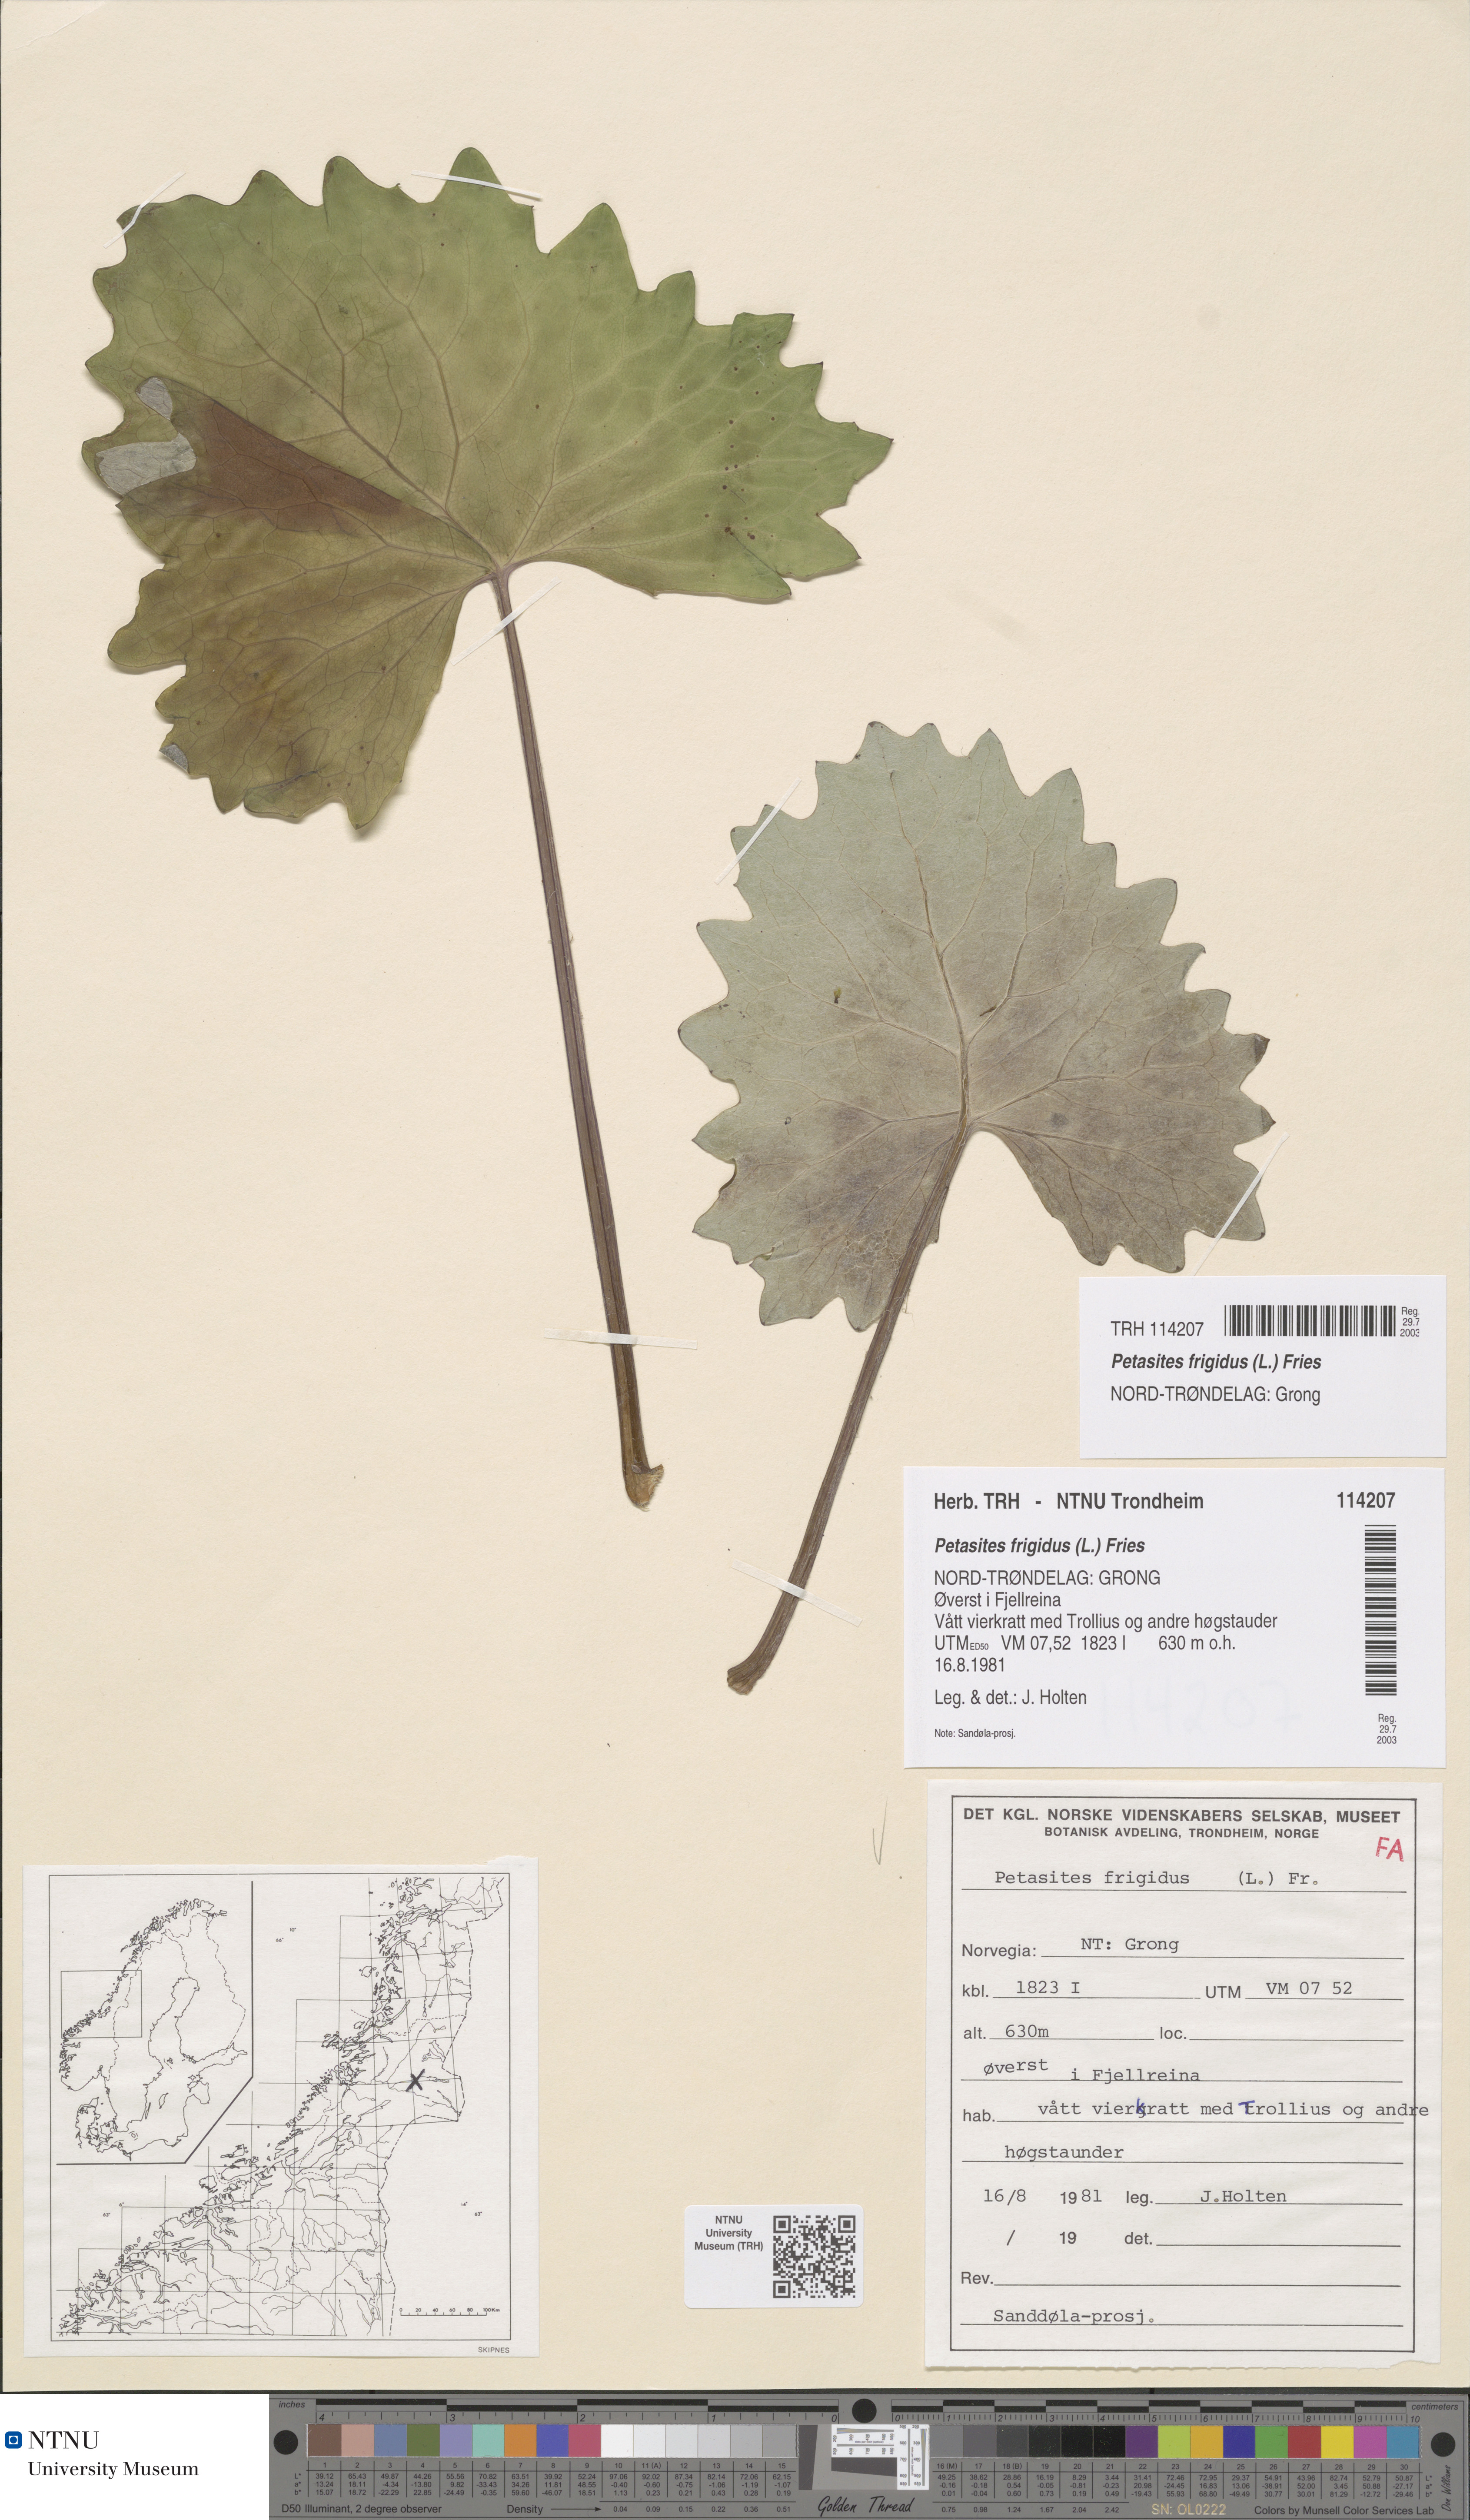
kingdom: Plantae
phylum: Tracheophyta
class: Magnoliopsida
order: Asterales
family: Asteraceae
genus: Petasites
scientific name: Petasites frigidus
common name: Arctic butterbur
